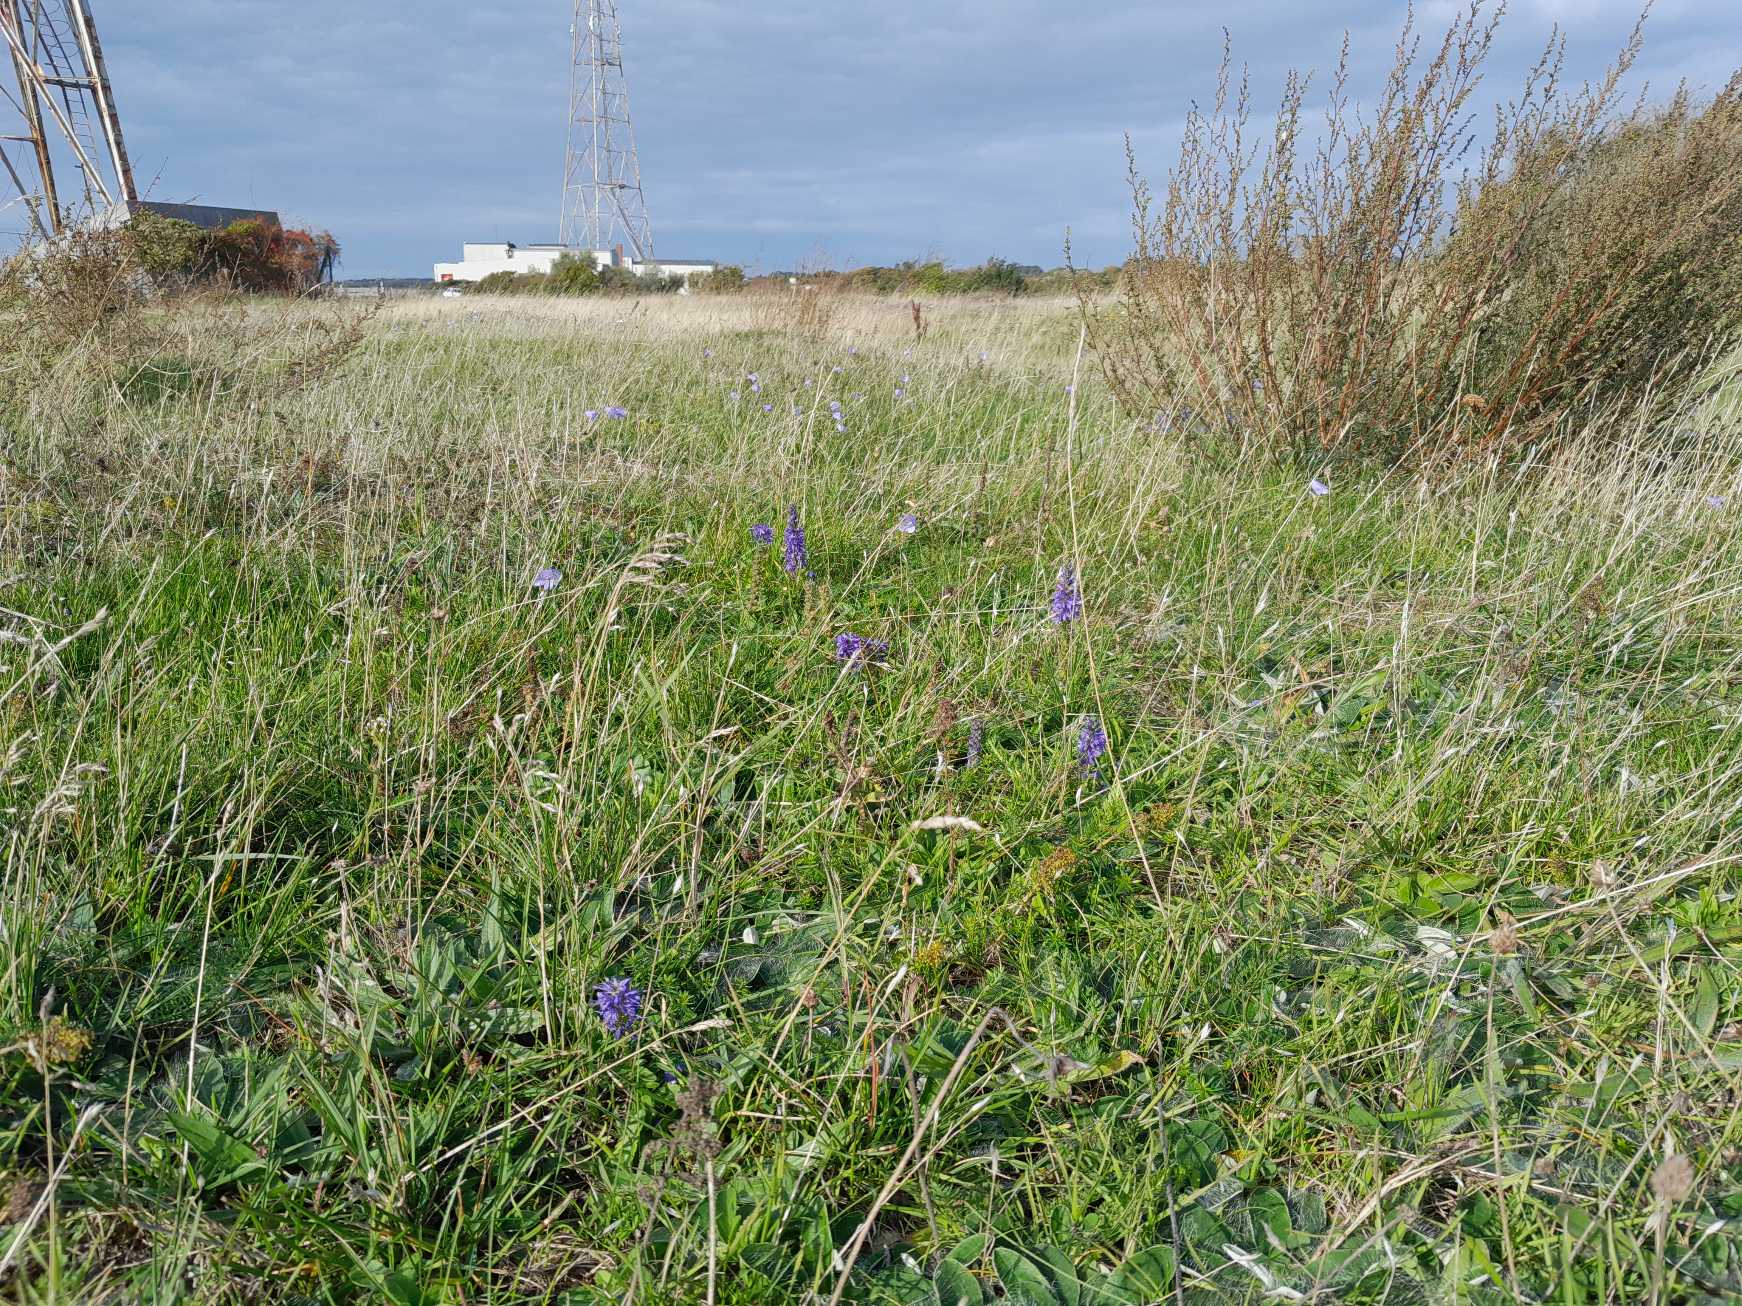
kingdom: Plantae
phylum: Tracheophyta
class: Magnoliopsida
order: Lamiales
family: Plantaginaceae
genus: Veronica
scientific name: Veronica spicata
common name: Aks-ærenpris
